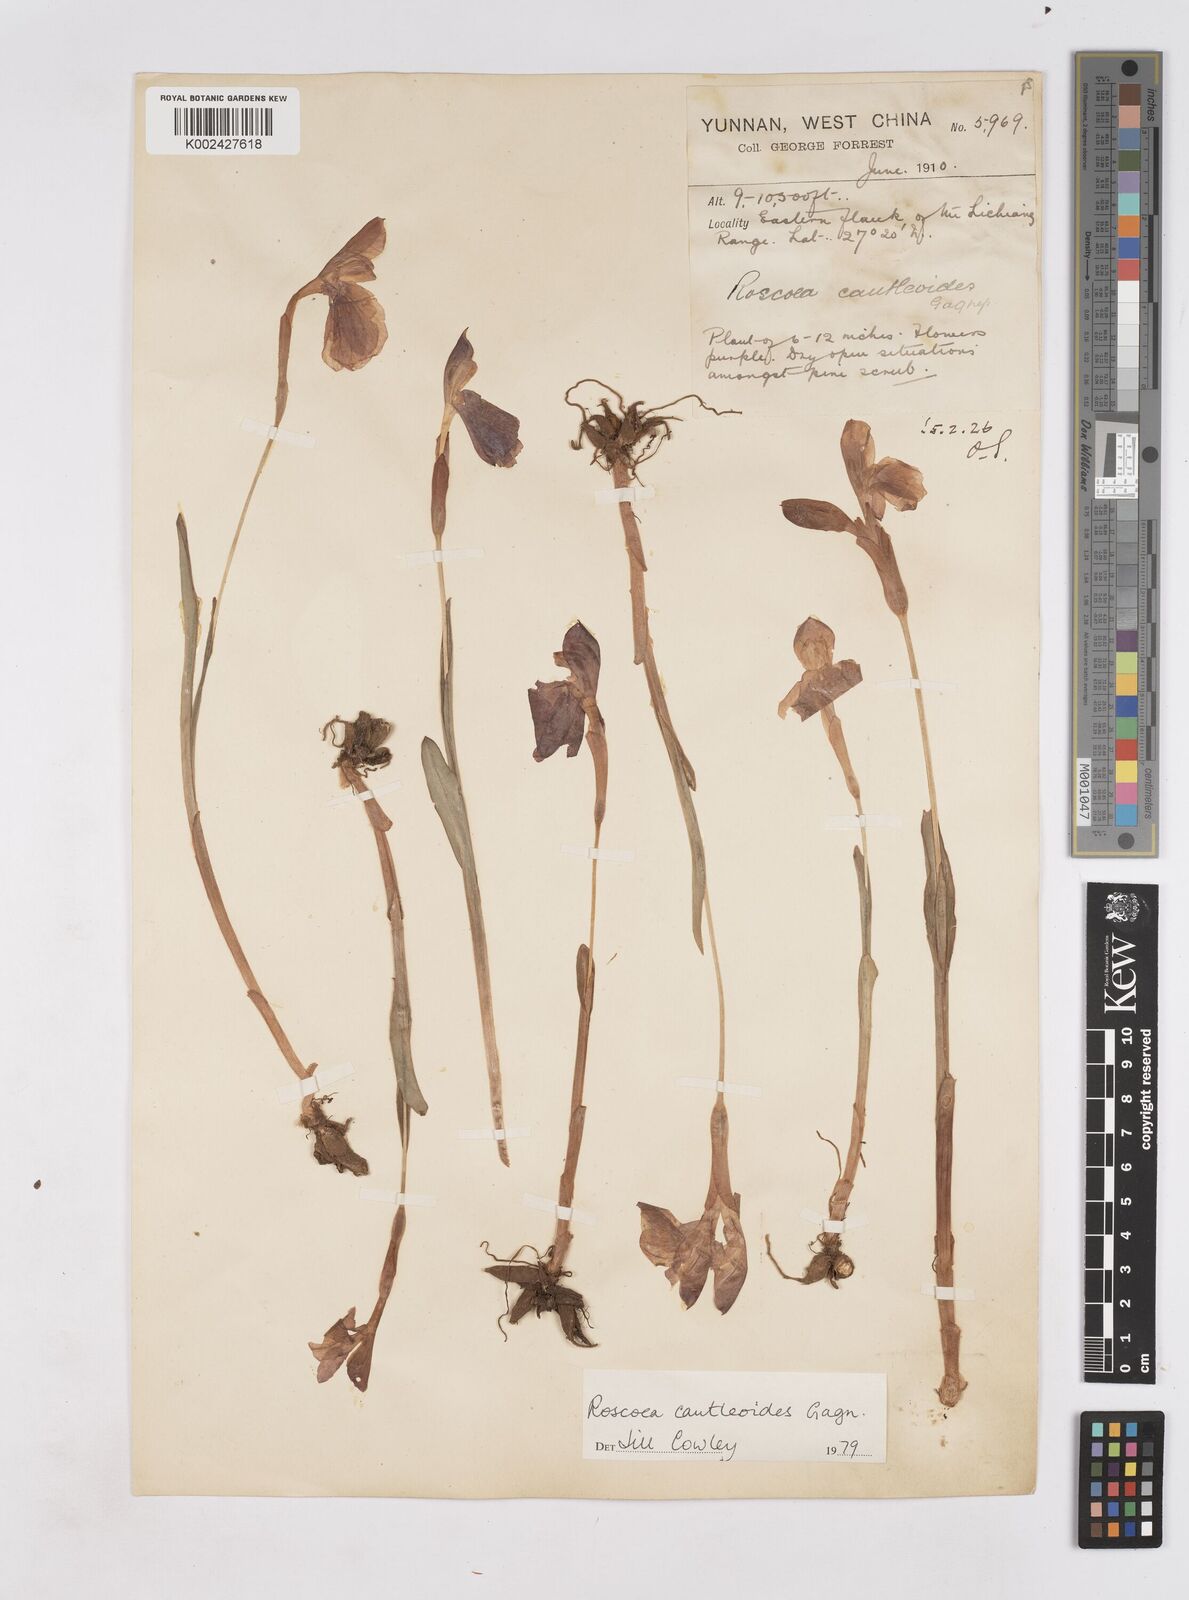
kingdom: Plantae
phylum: Tracheophyta
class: Liliopsida
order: Zingiberales
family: Zingiberaceae
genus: Roscoea
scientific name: Roscoea cautleyoides
